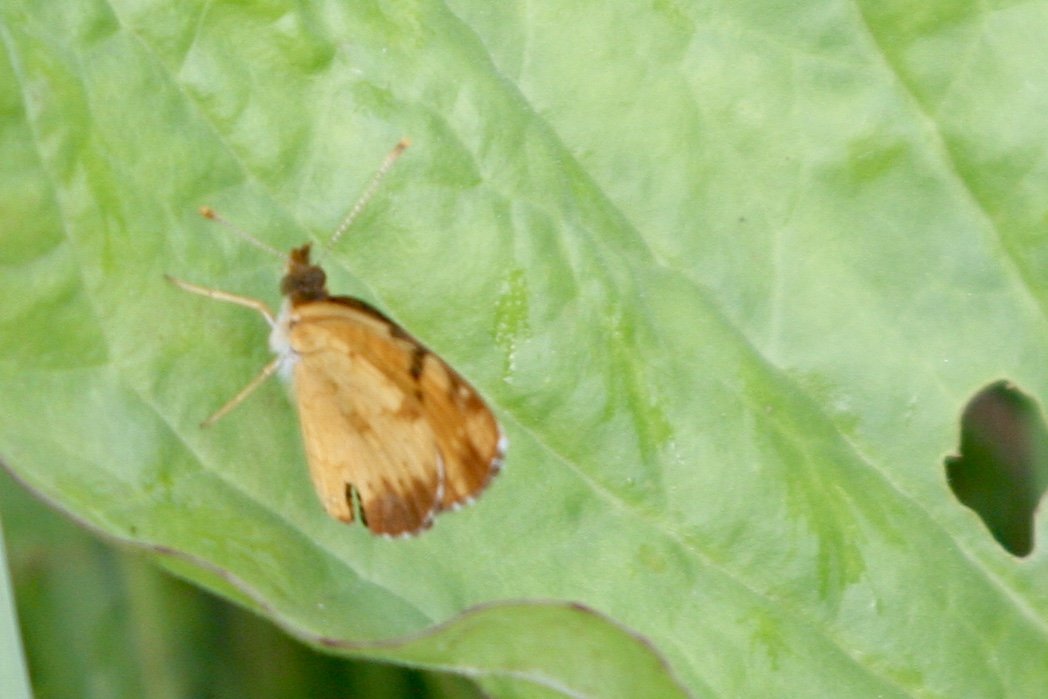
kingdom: Animalia
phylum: Arthropoda
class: Insecta
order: Lepidoptera
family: Nymphalidae
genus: Phyciodes
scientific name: Phyciodes tharos
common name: Northern Crescent
